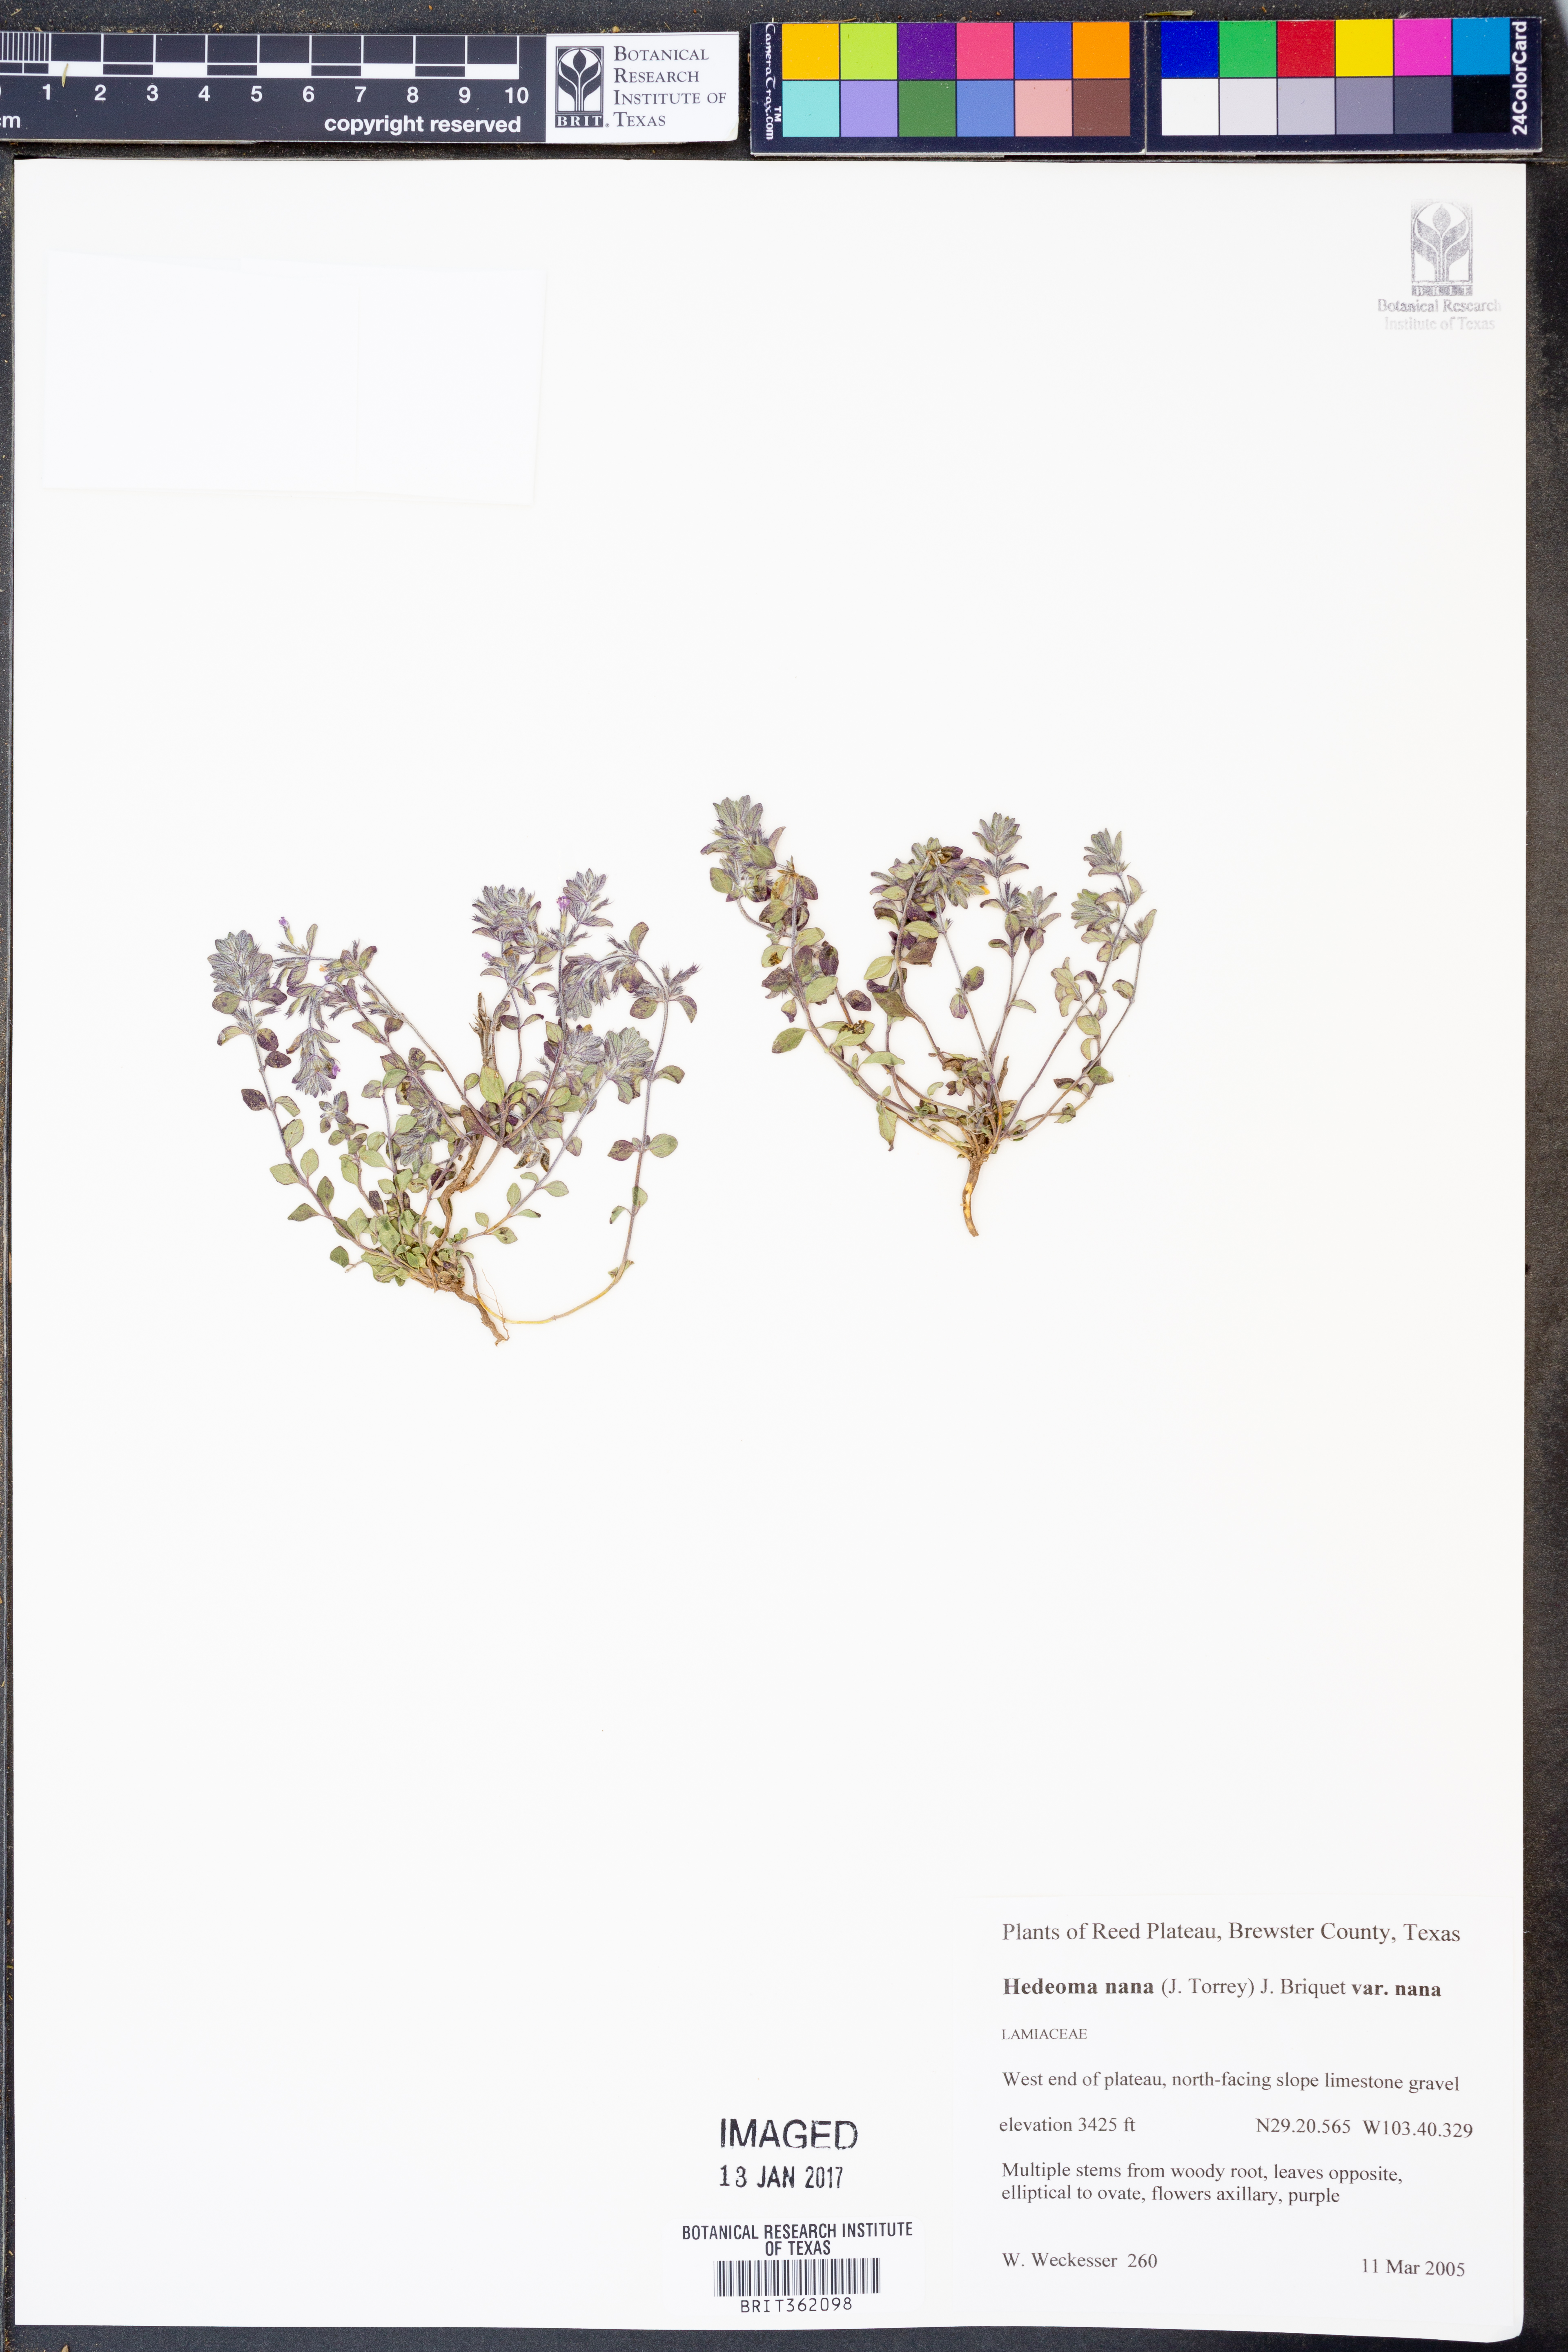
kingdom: Plantae
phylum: Tracheophyta
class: Magnoliopsida
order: Lamiales
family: Lamiaceae
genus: Hedeoma
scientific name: Hedeoma nana
